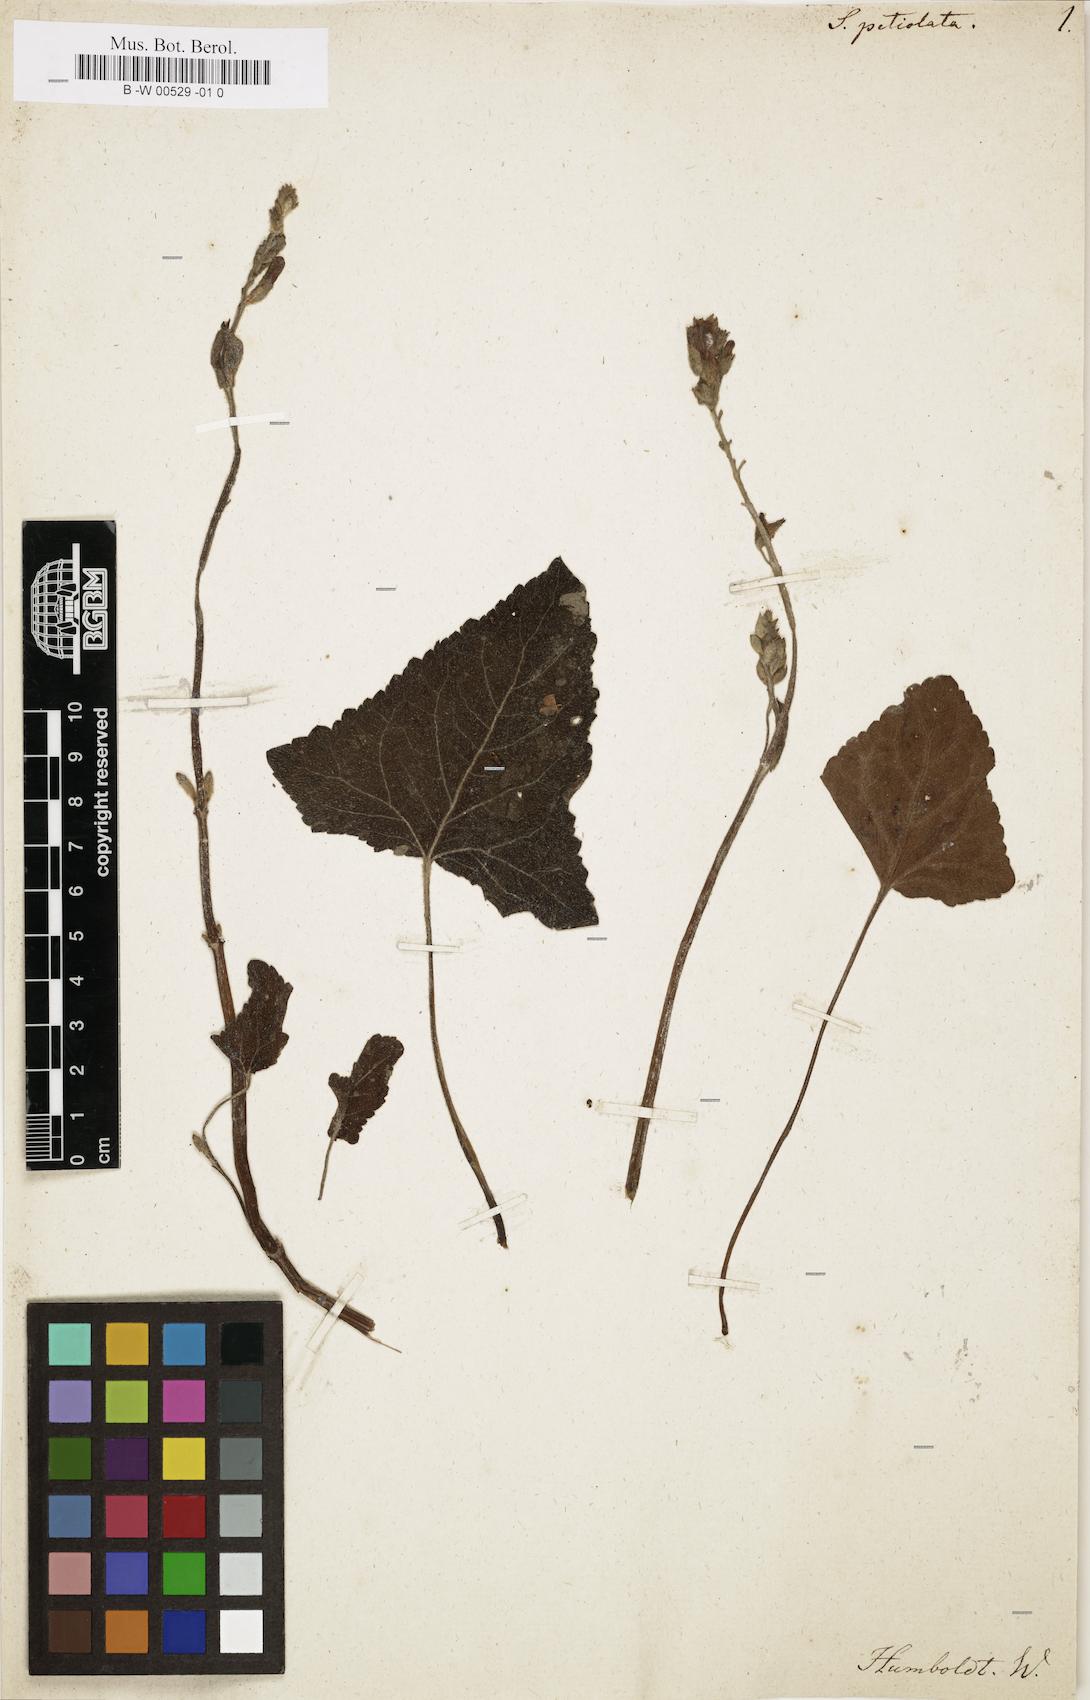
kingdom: Plantae
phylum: Tracheophyta
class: Magnoliopsida
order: Lamiales
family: Lamiaceae
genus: Salvia
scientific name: Salvia
